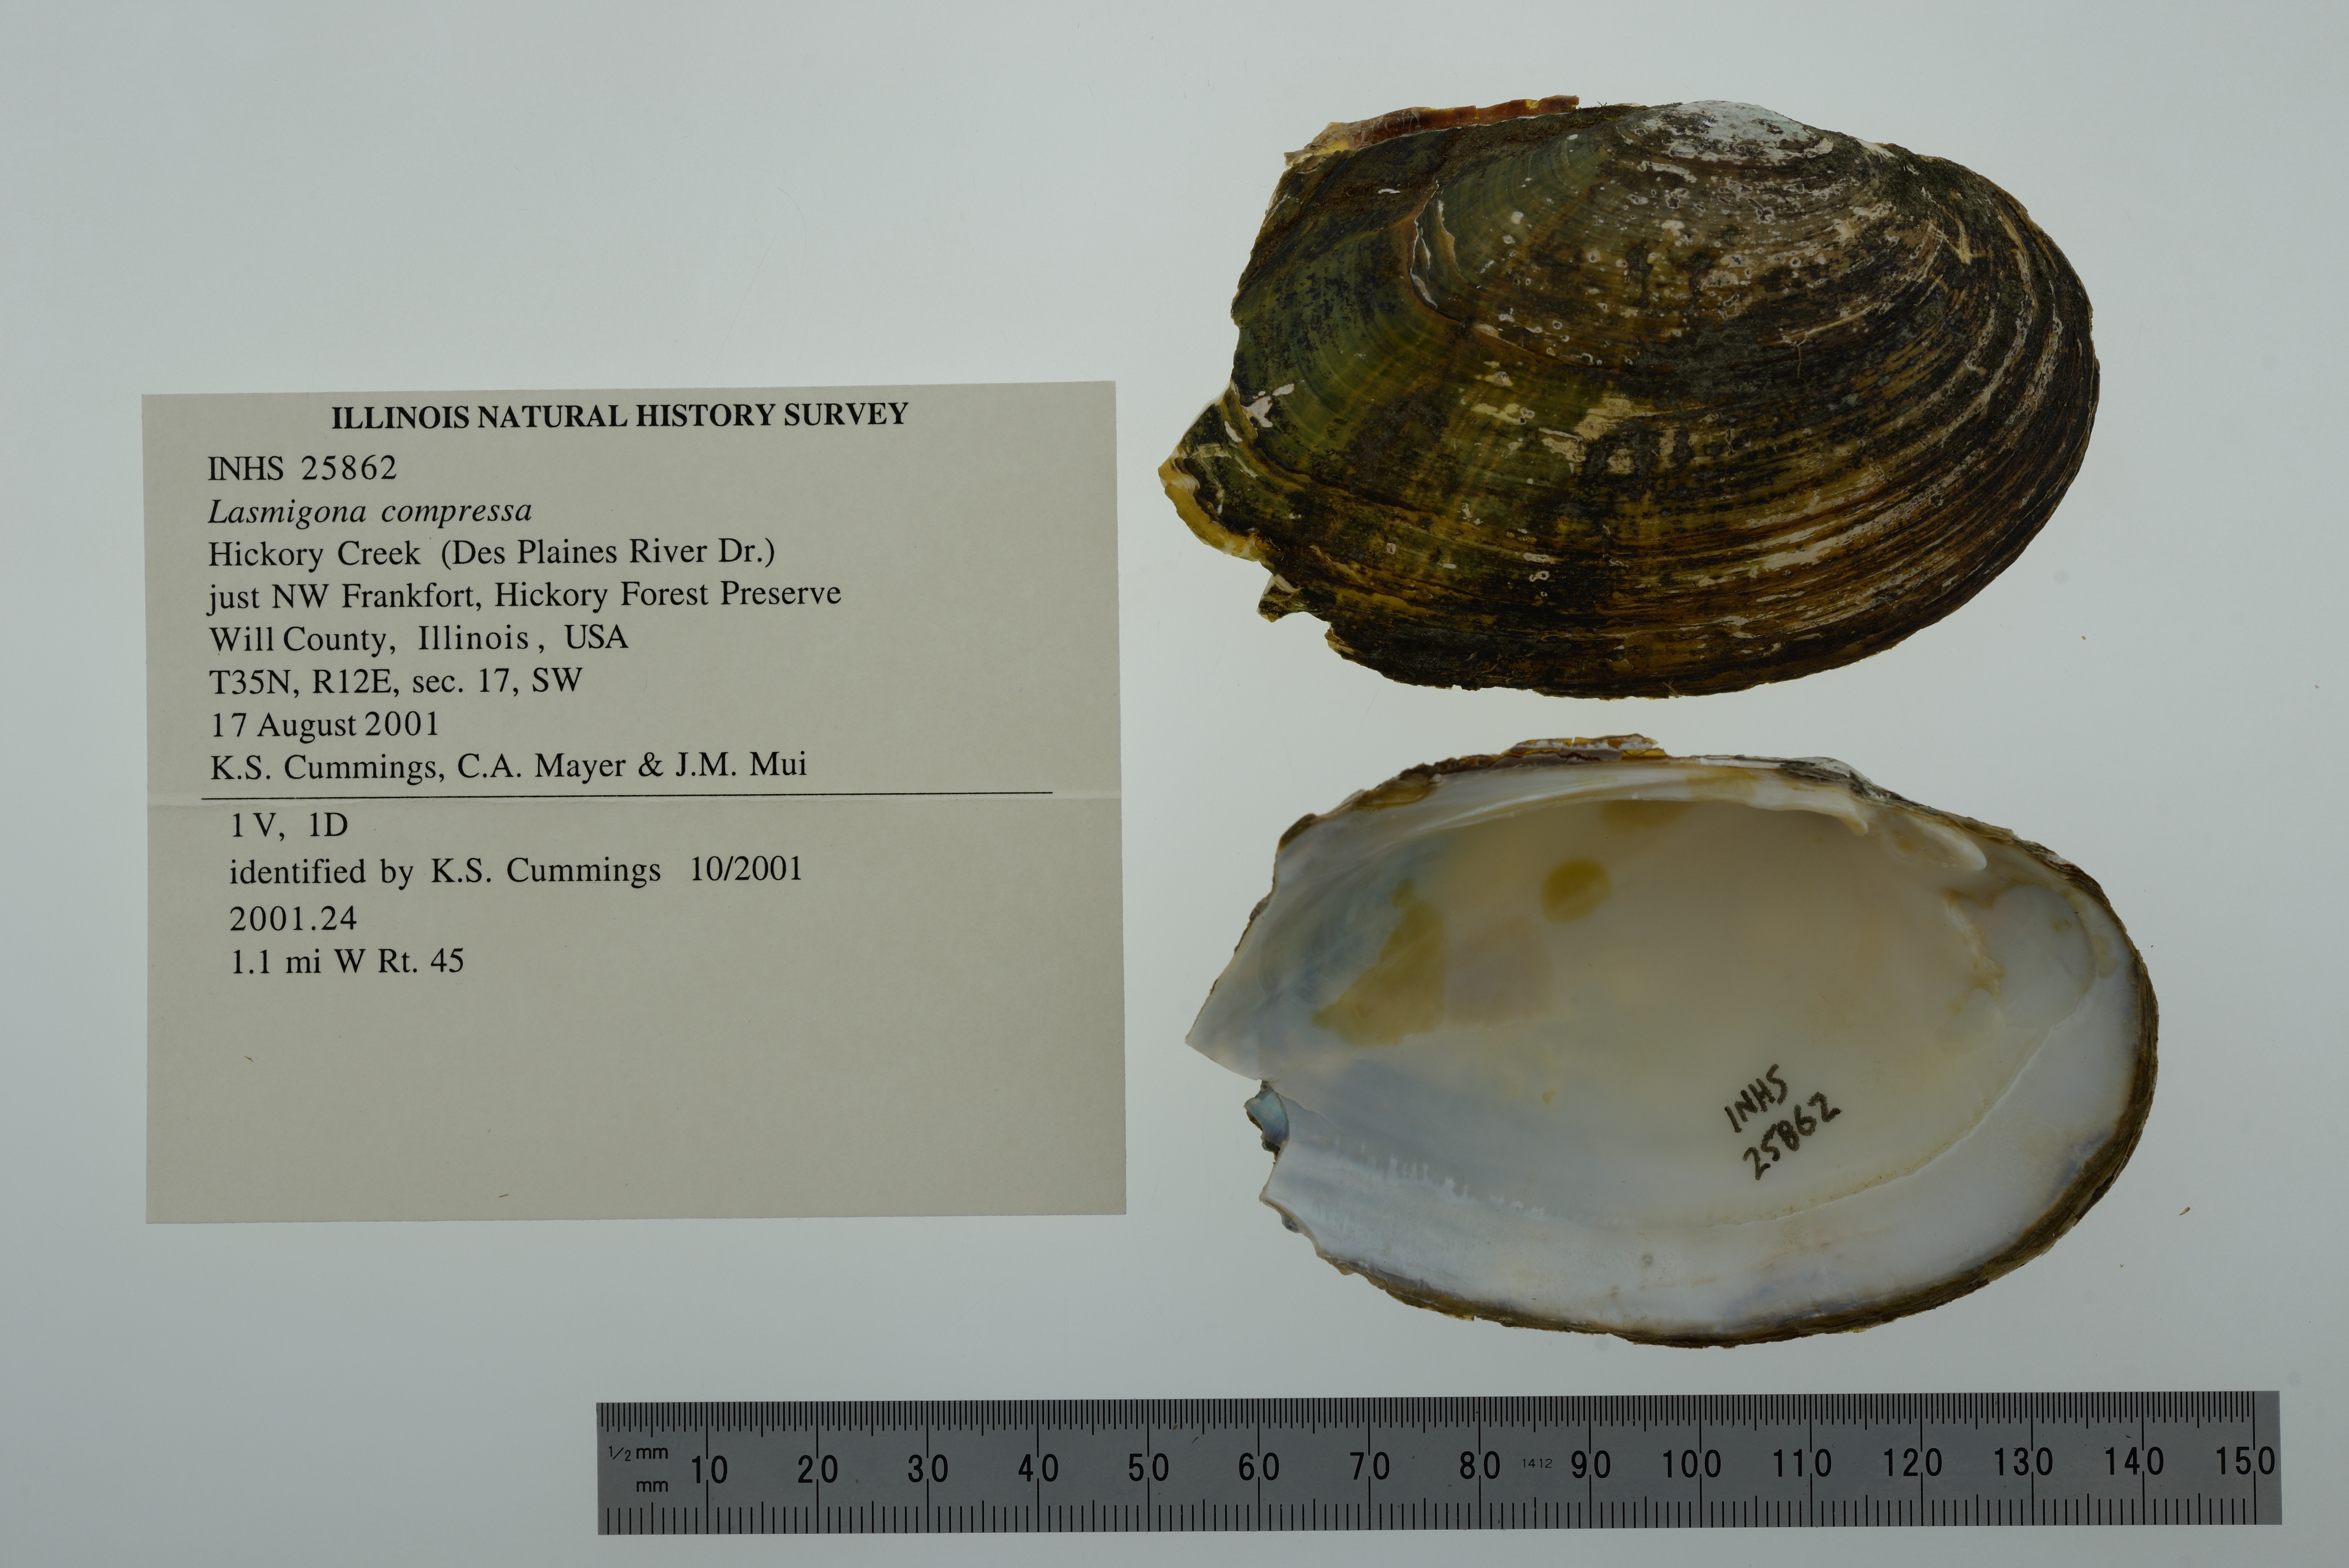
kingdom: Animalia
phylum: Mollusca
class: Bivalvia
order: Unionida
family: Unionidae
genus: Lasmigona
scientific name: Lasmigona compressa
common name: Creek heelsplitter
